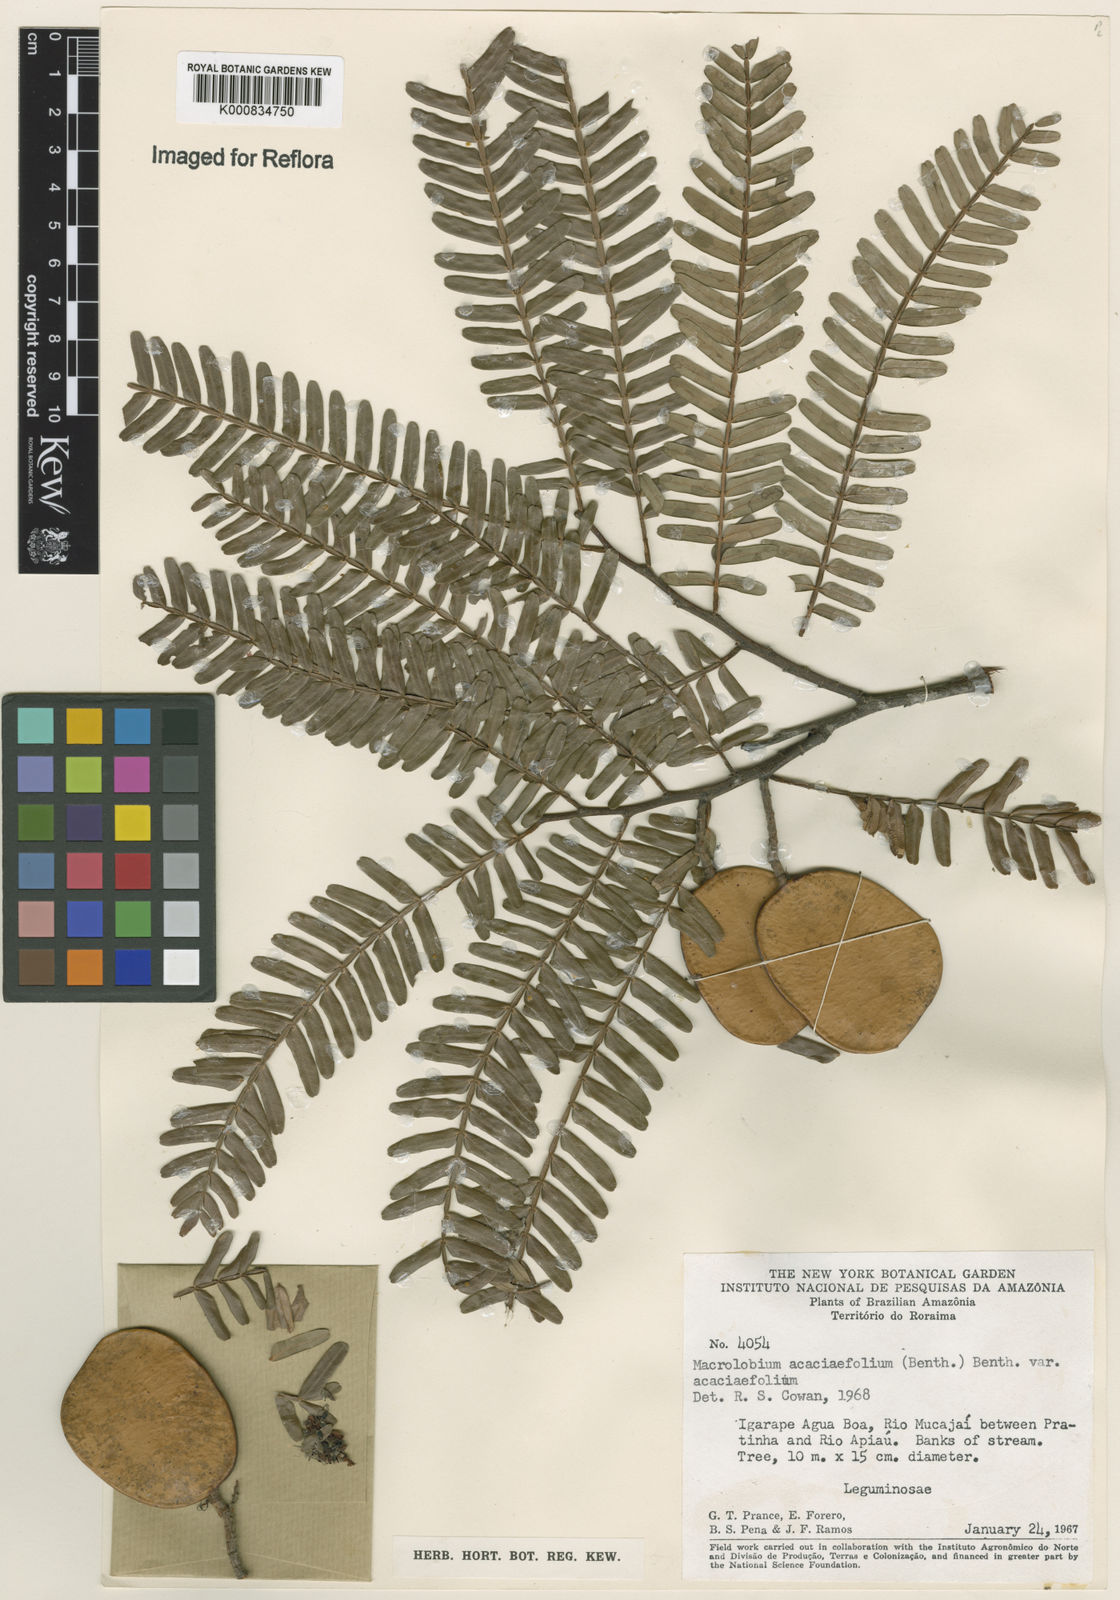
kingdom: Plantae
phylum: Tracheophyta
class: Magnoliopsida
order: Fabales
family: Fabaceae
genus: Macrolobium
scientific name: Macrolobium acaciifolium
